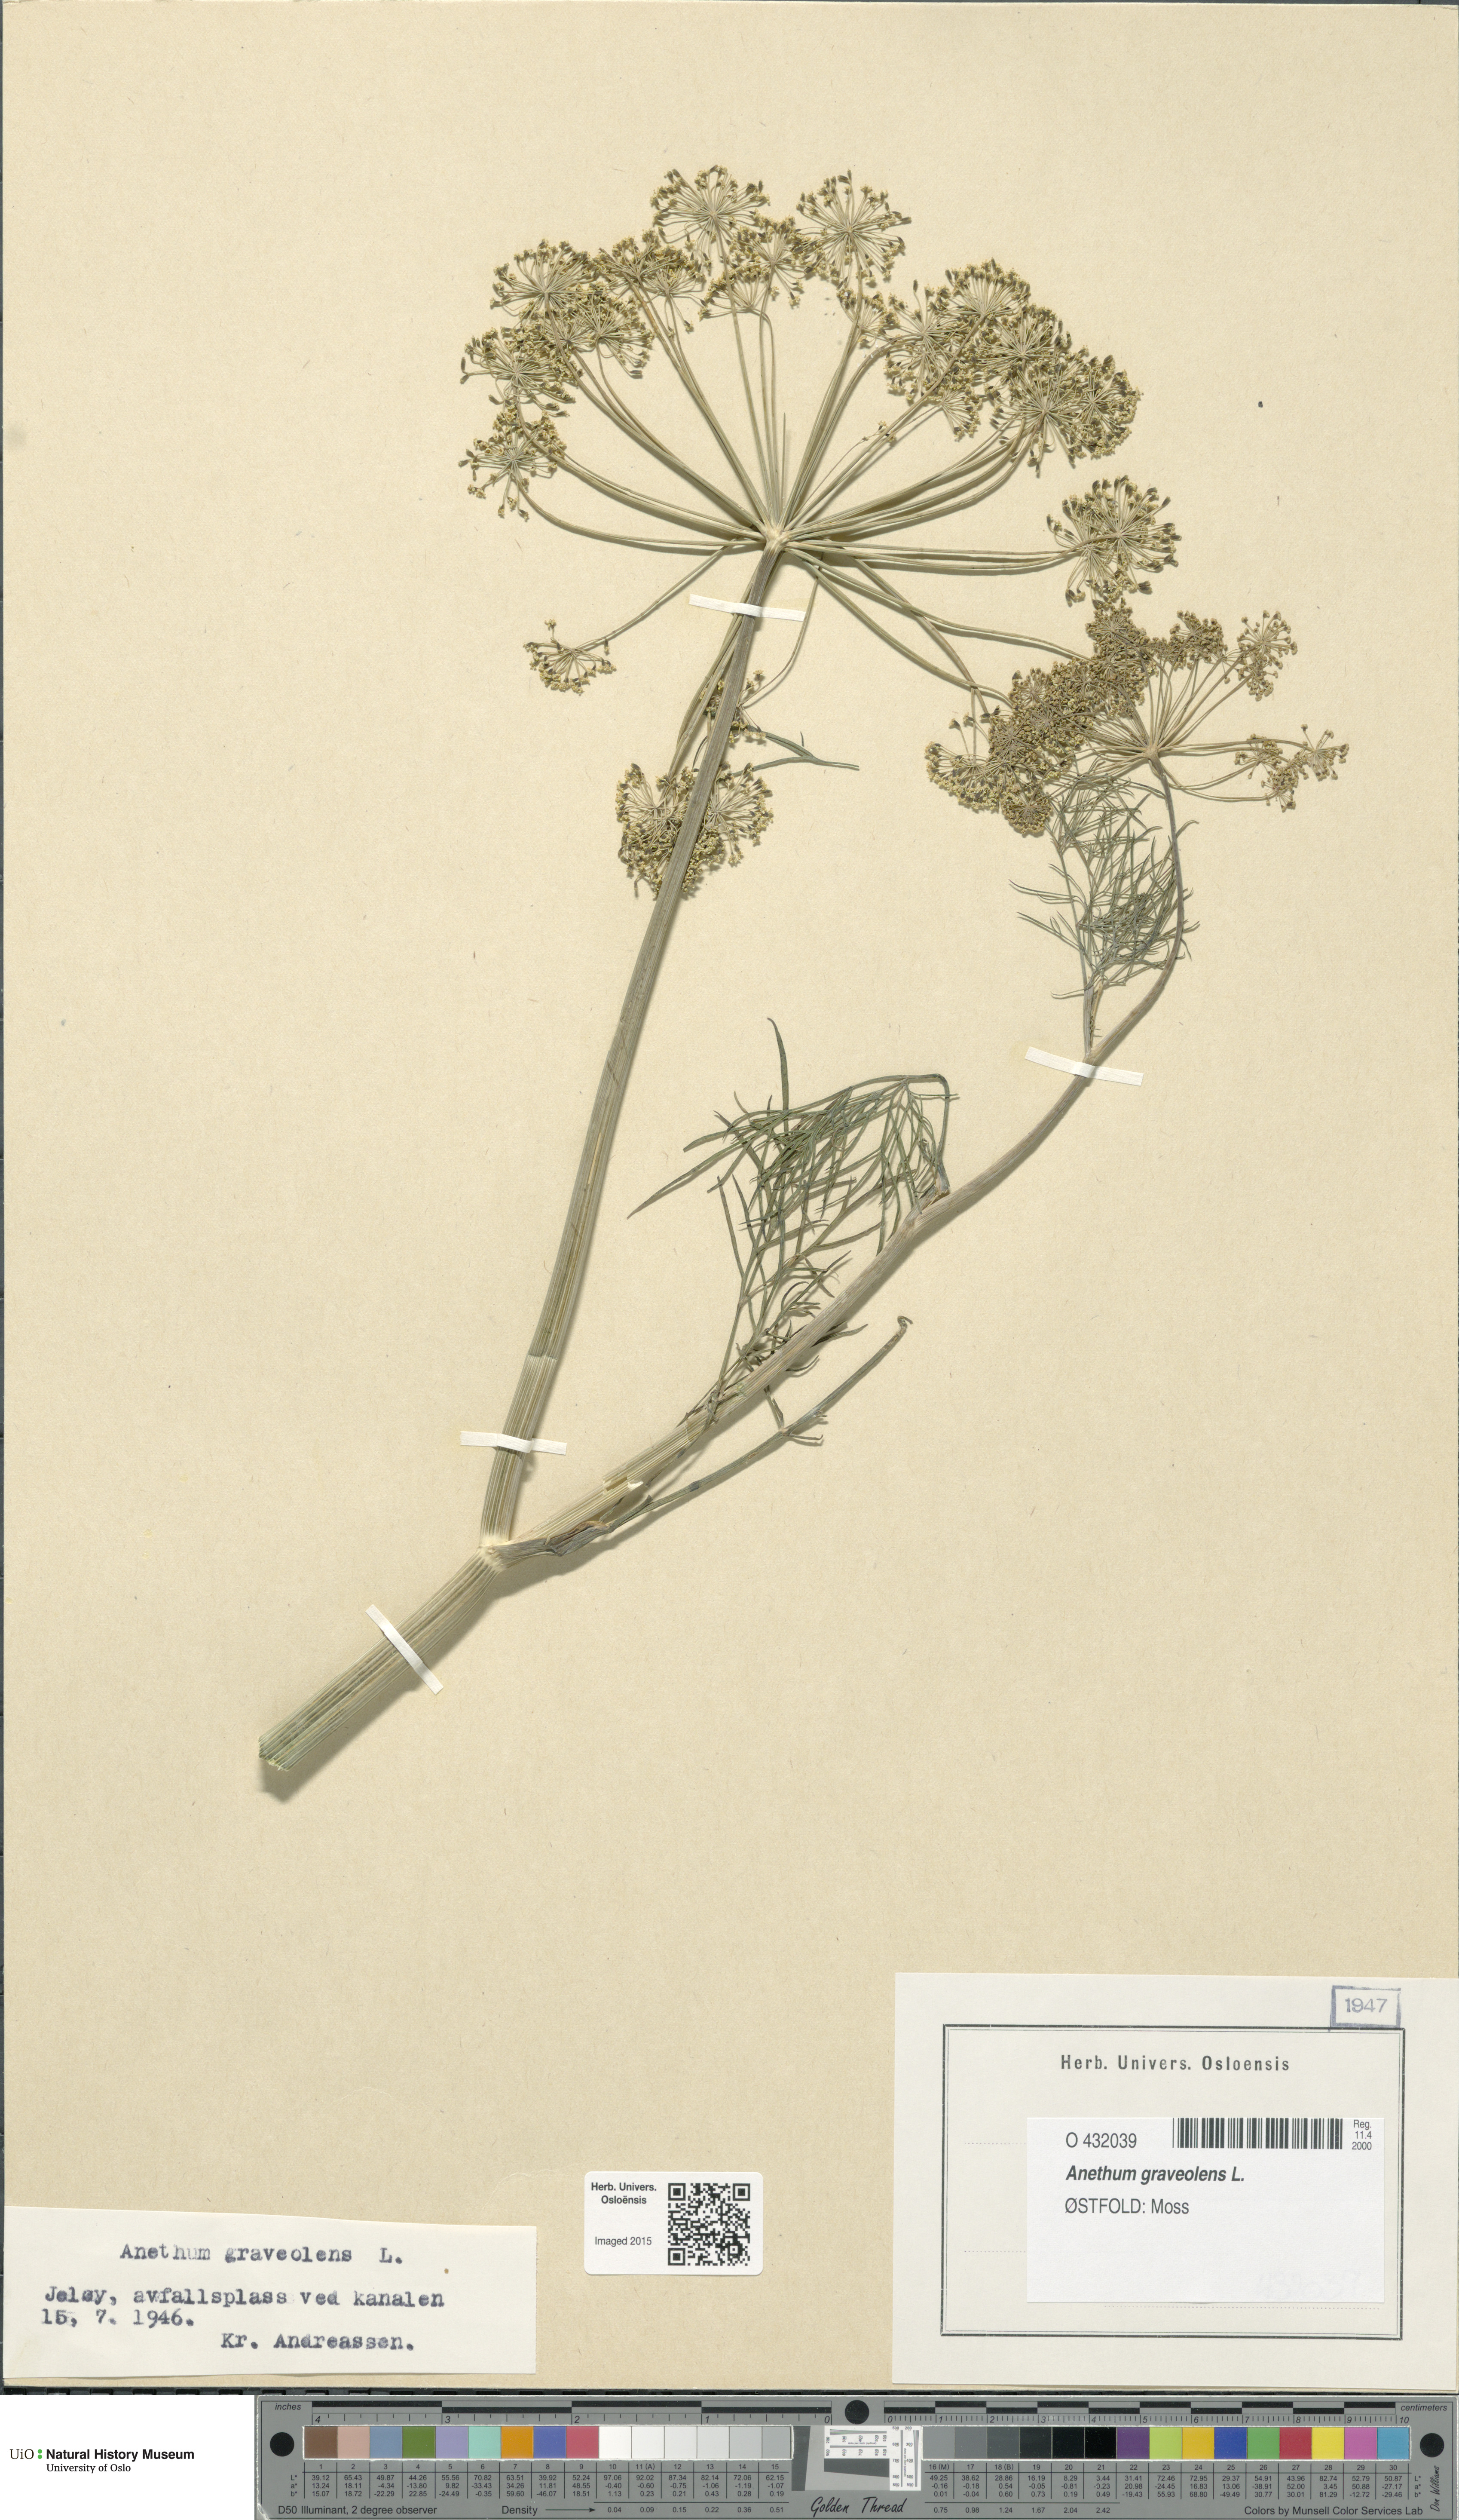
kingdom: Plantae
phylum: Tracheophyta
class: Magnoliopsida
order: Apiales
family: Apiaceae
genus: Anethum
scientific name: Anethum graveolens
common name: Dill
